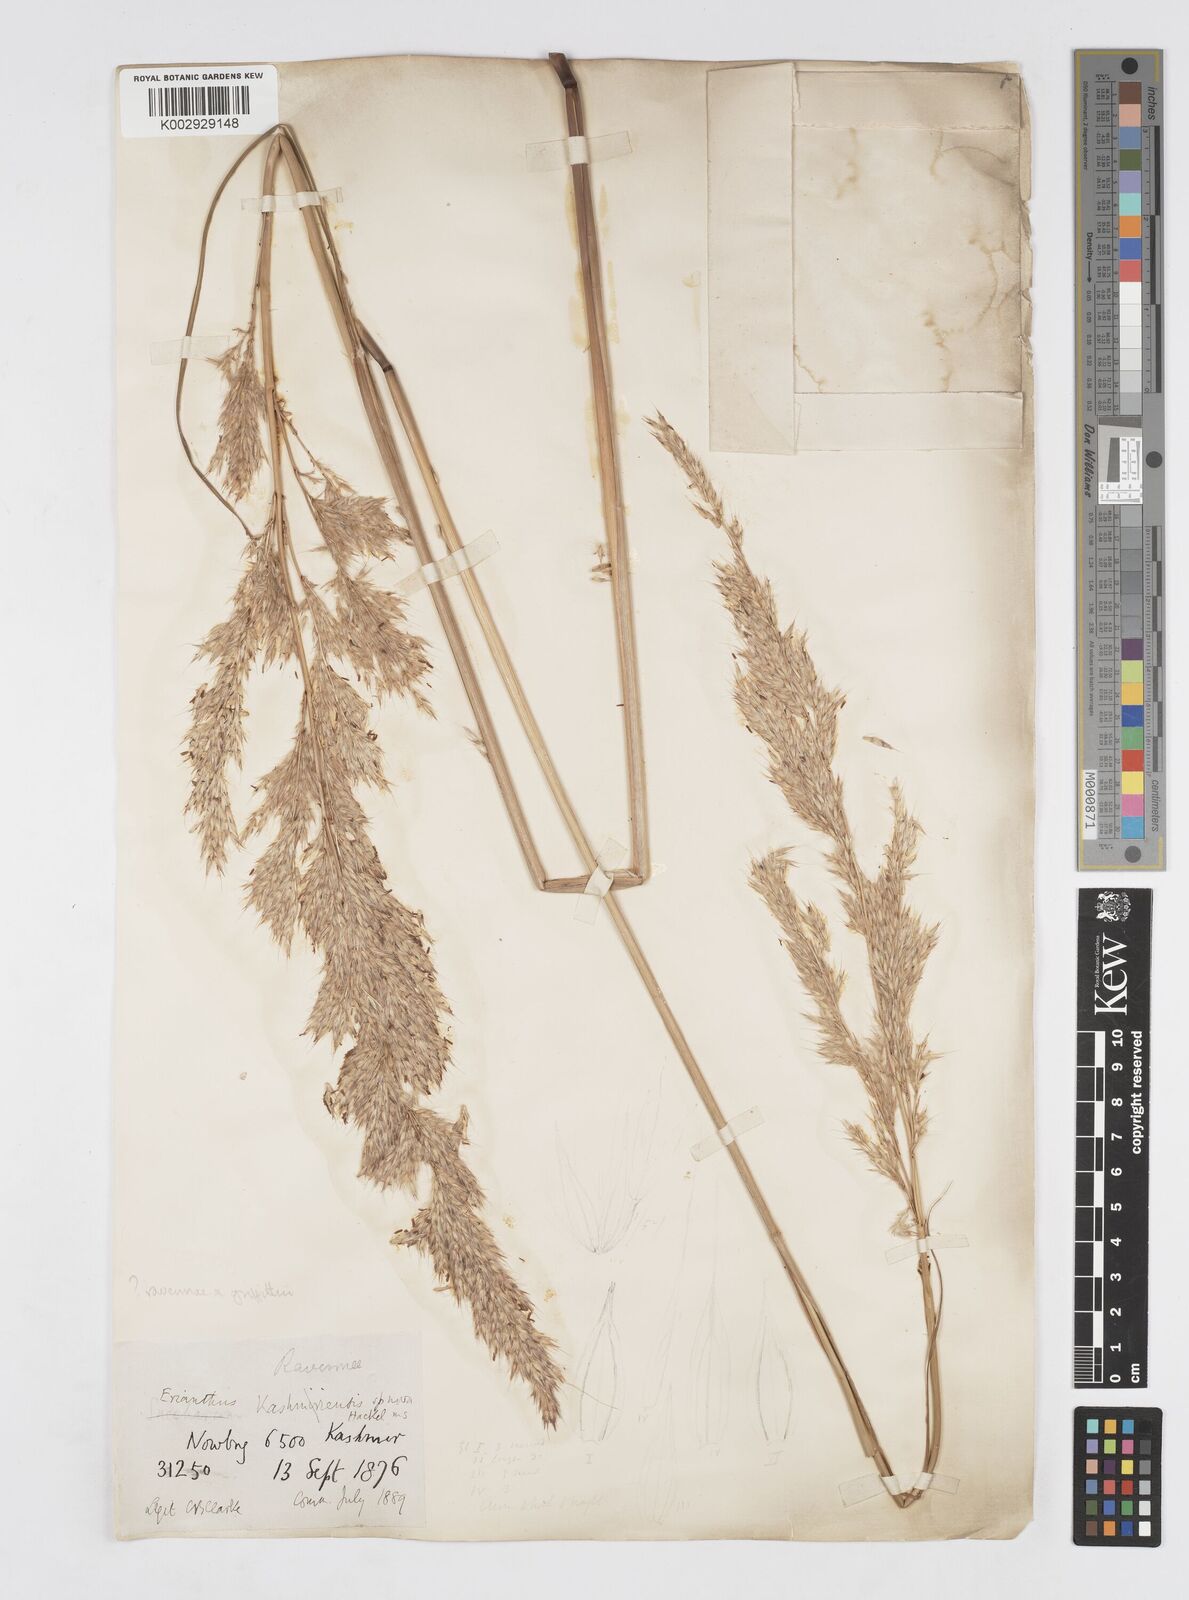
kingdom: Plantae
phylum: Tracheophyta
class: Liliopsida
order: Poales
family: Poaceae
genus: Saccharum
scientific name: Saccharum
